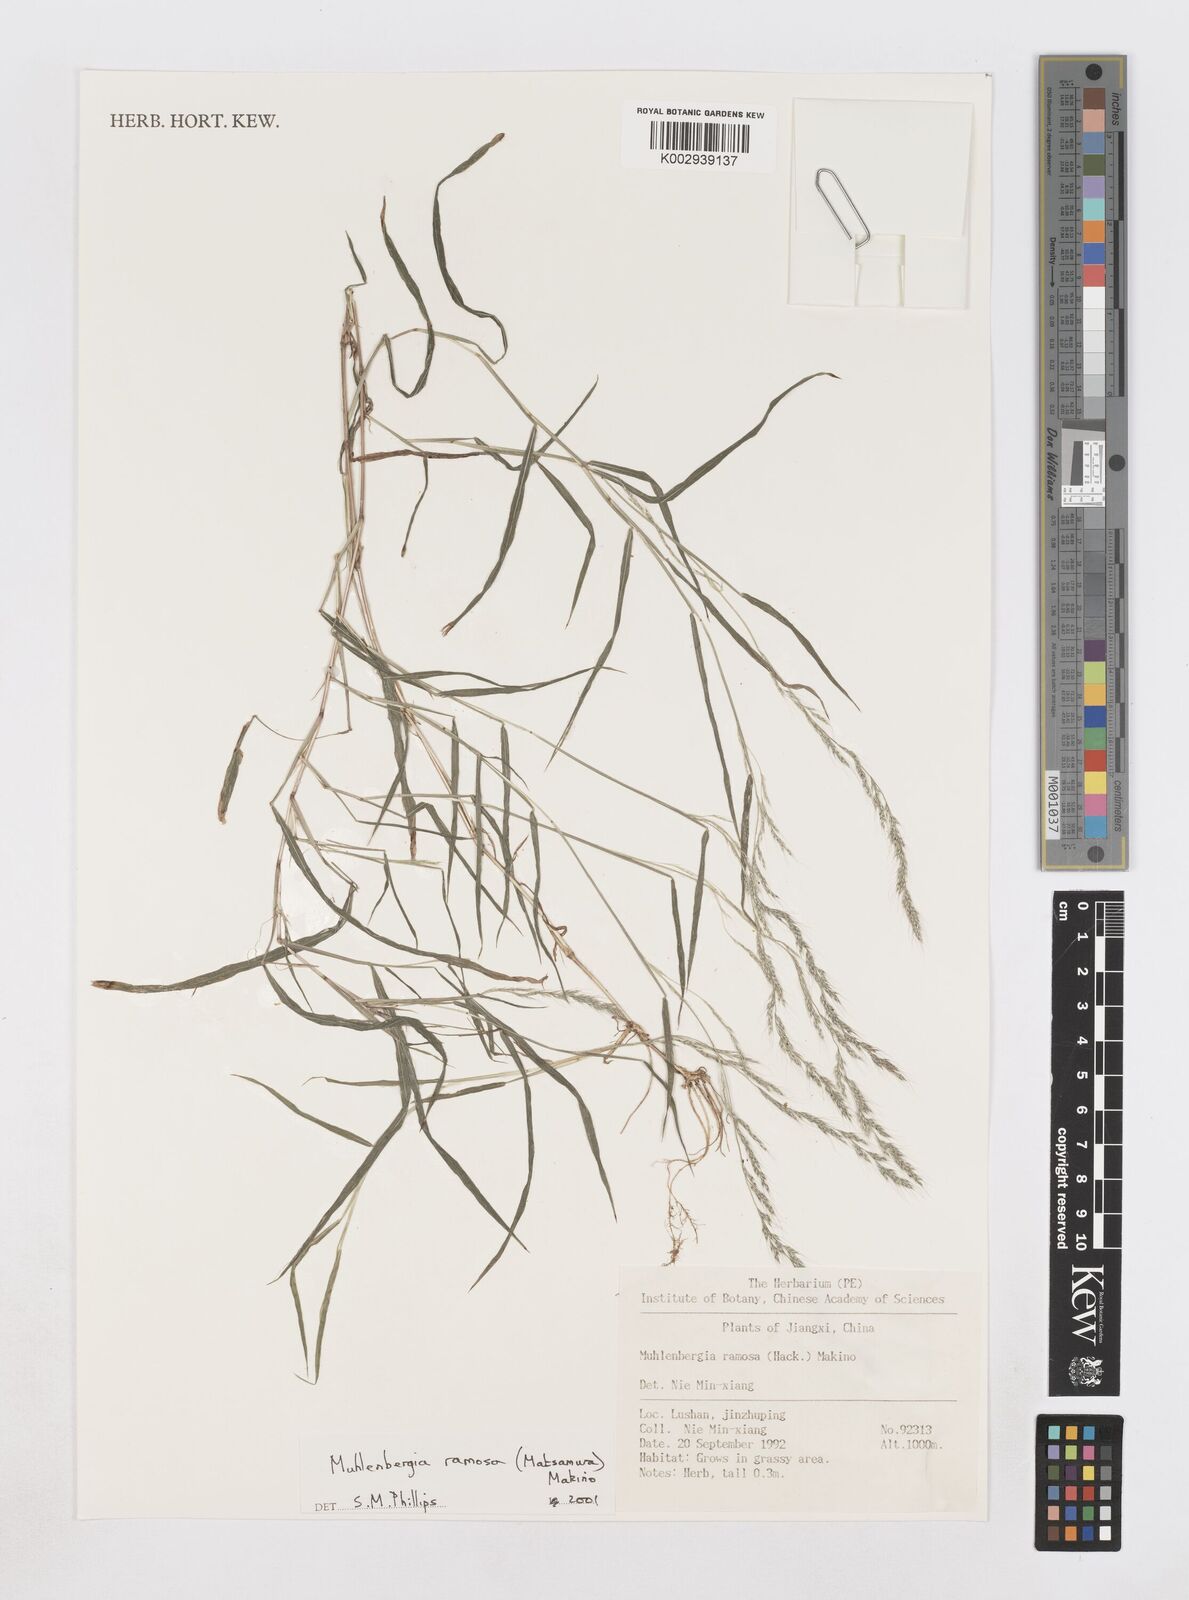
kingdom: Plantae
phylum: Tracheophyta
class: Liliopsida
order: Poales
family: Poaceae
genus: Muhlenbergia
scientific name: Muhlenbergia ramosa
